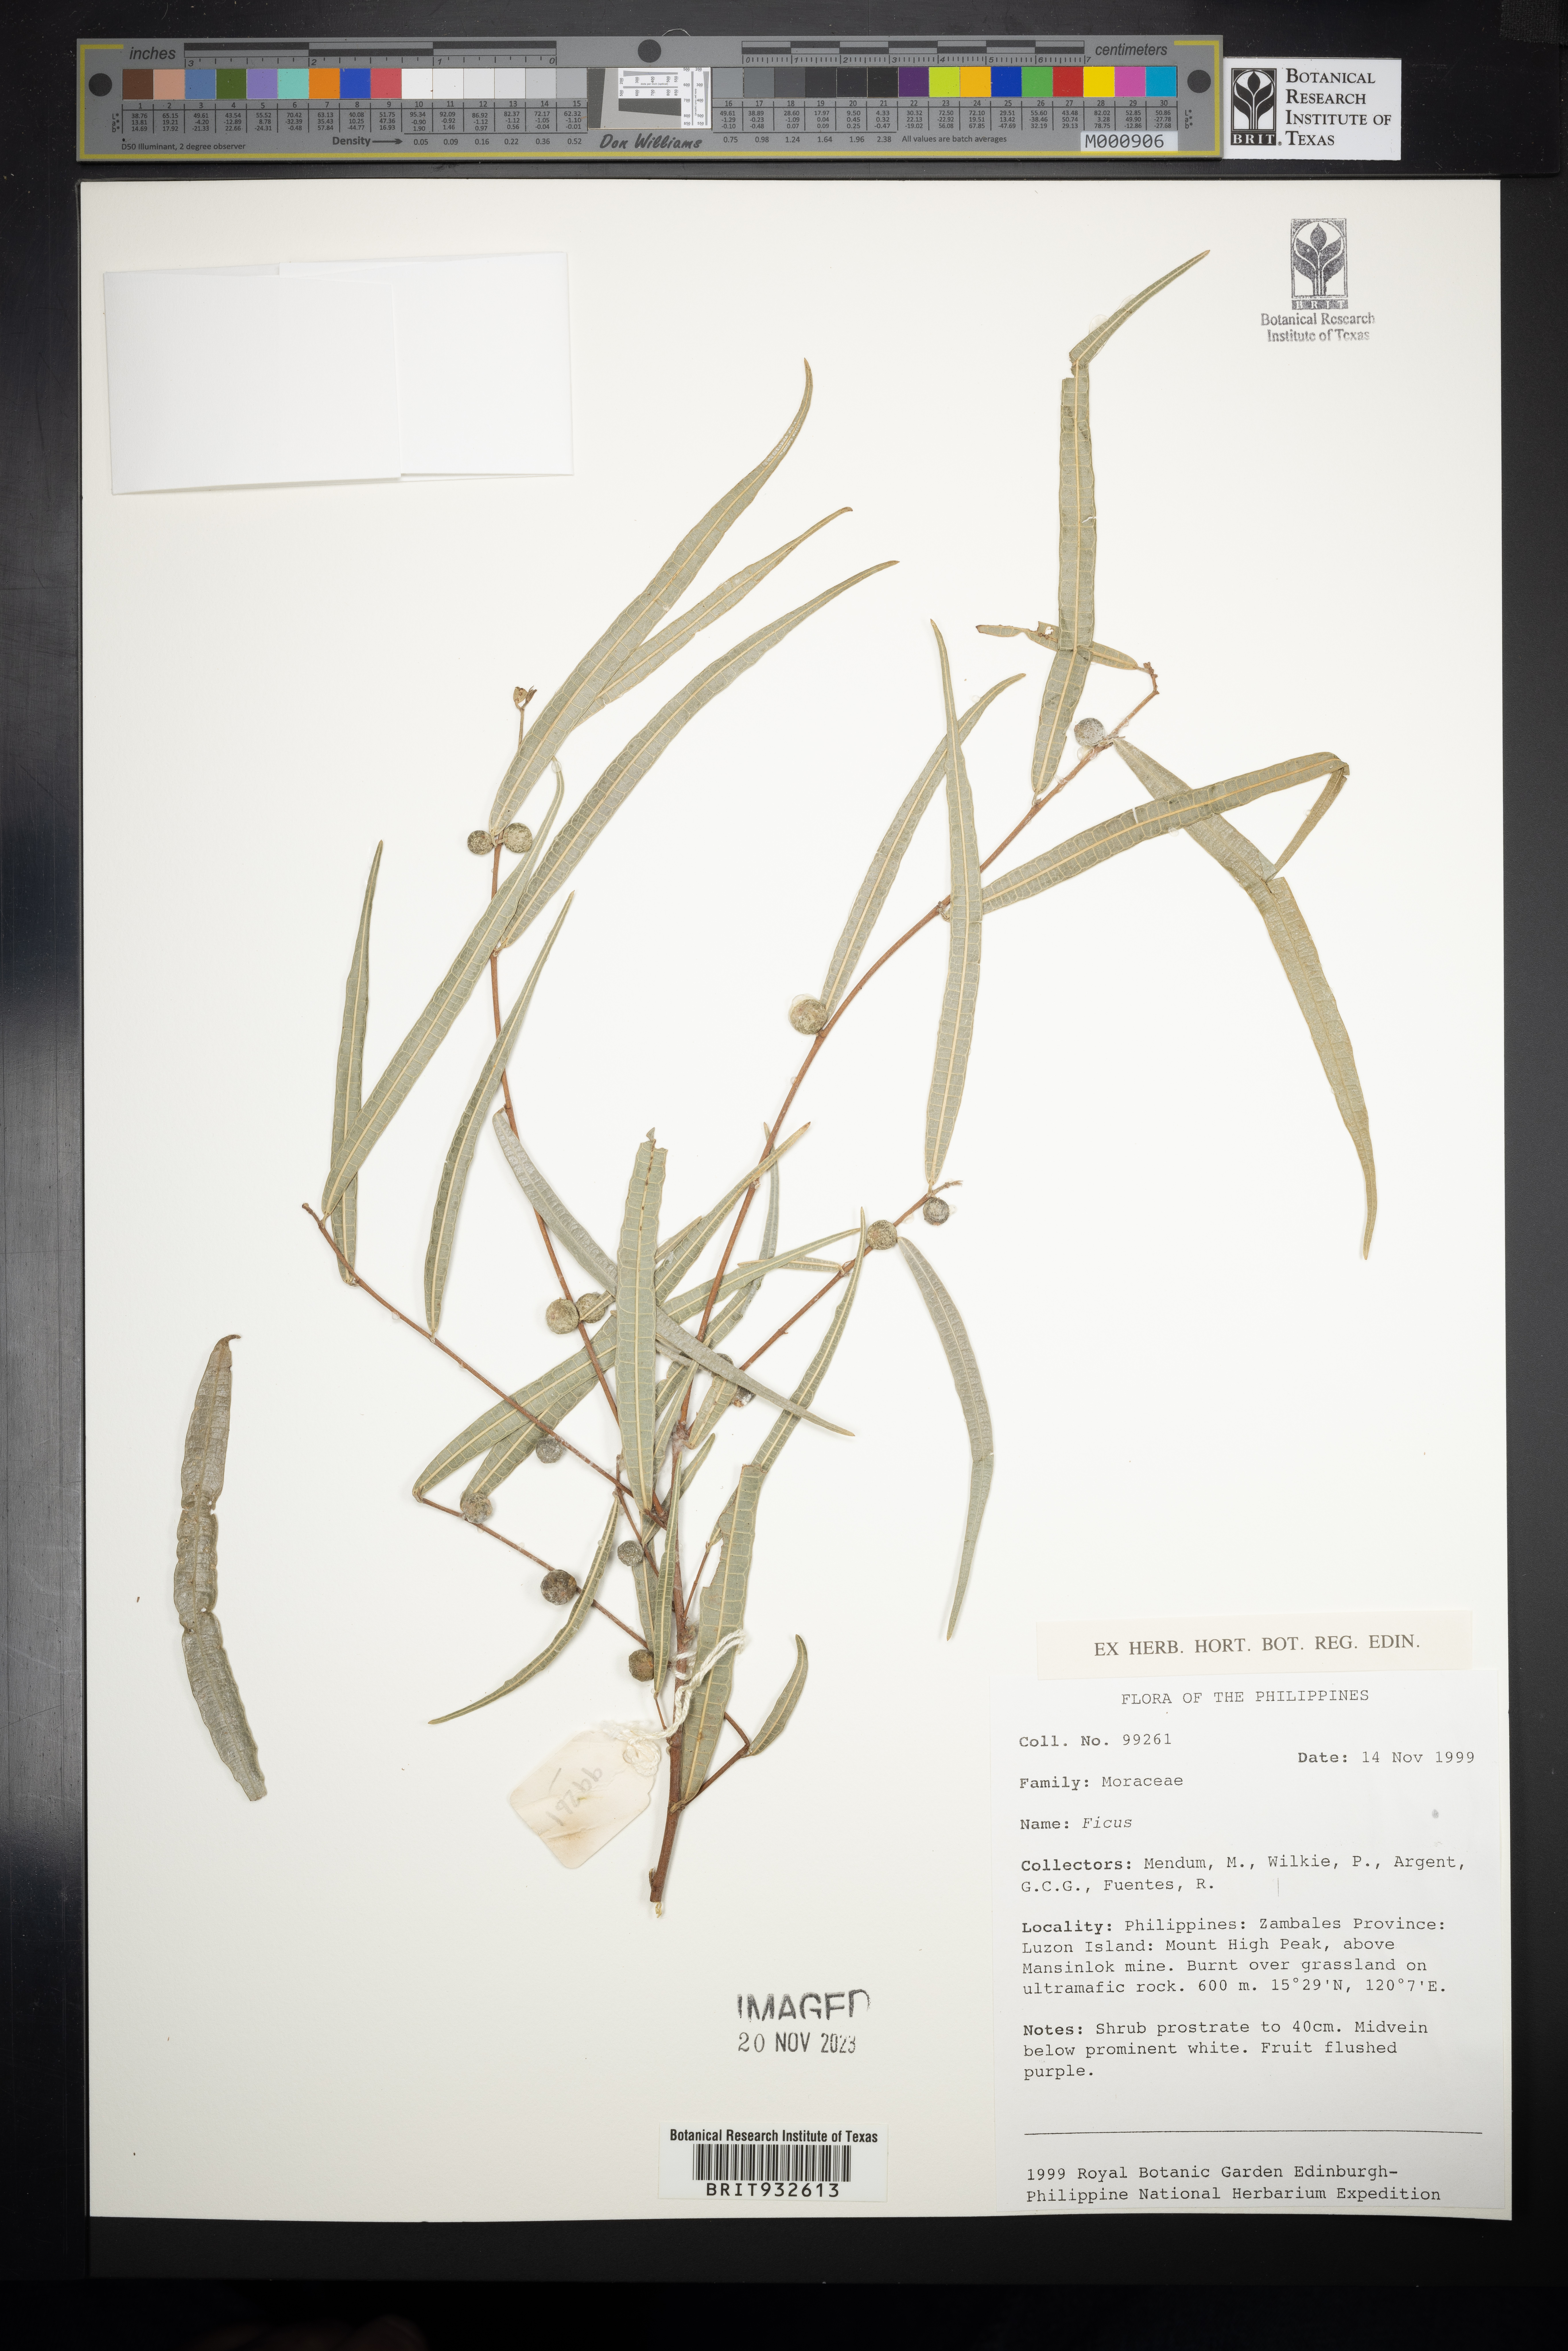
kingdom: Plantae
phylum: Tracheophyta
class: Magnoliopsida
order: Rosales
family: Moraceae
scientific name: Moraceae
